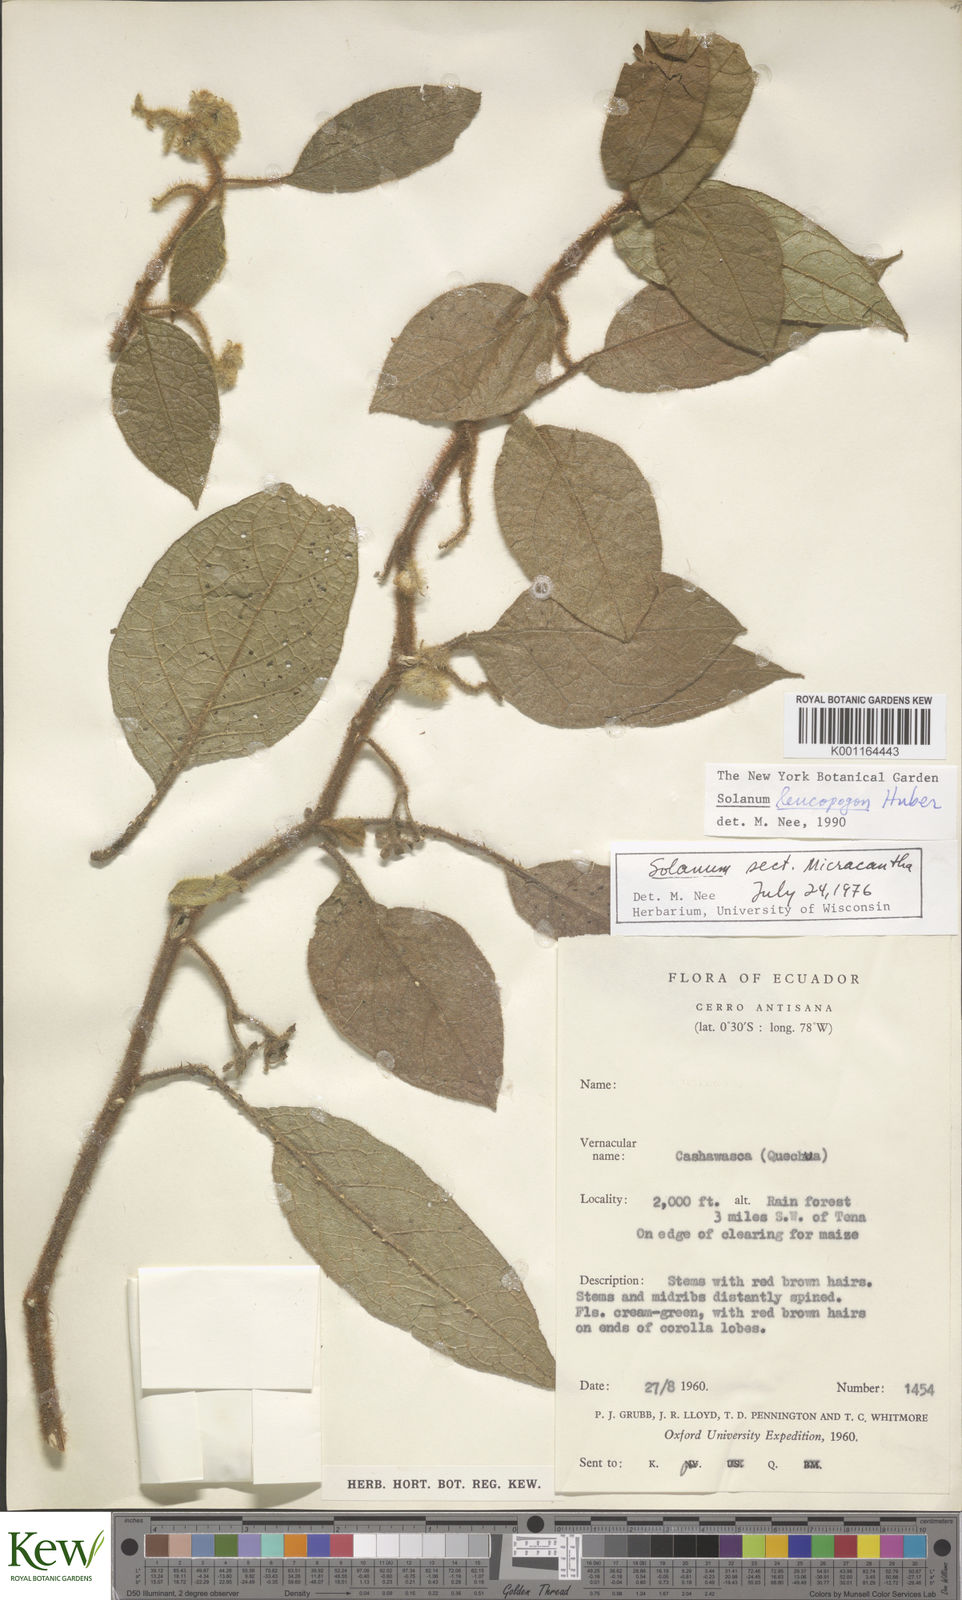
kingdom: Plantae
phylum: Tracheophyta
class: Magnoliopsida
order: Solanales
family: Solanaceae
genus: Solanum
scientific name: Solanum leucopogon
